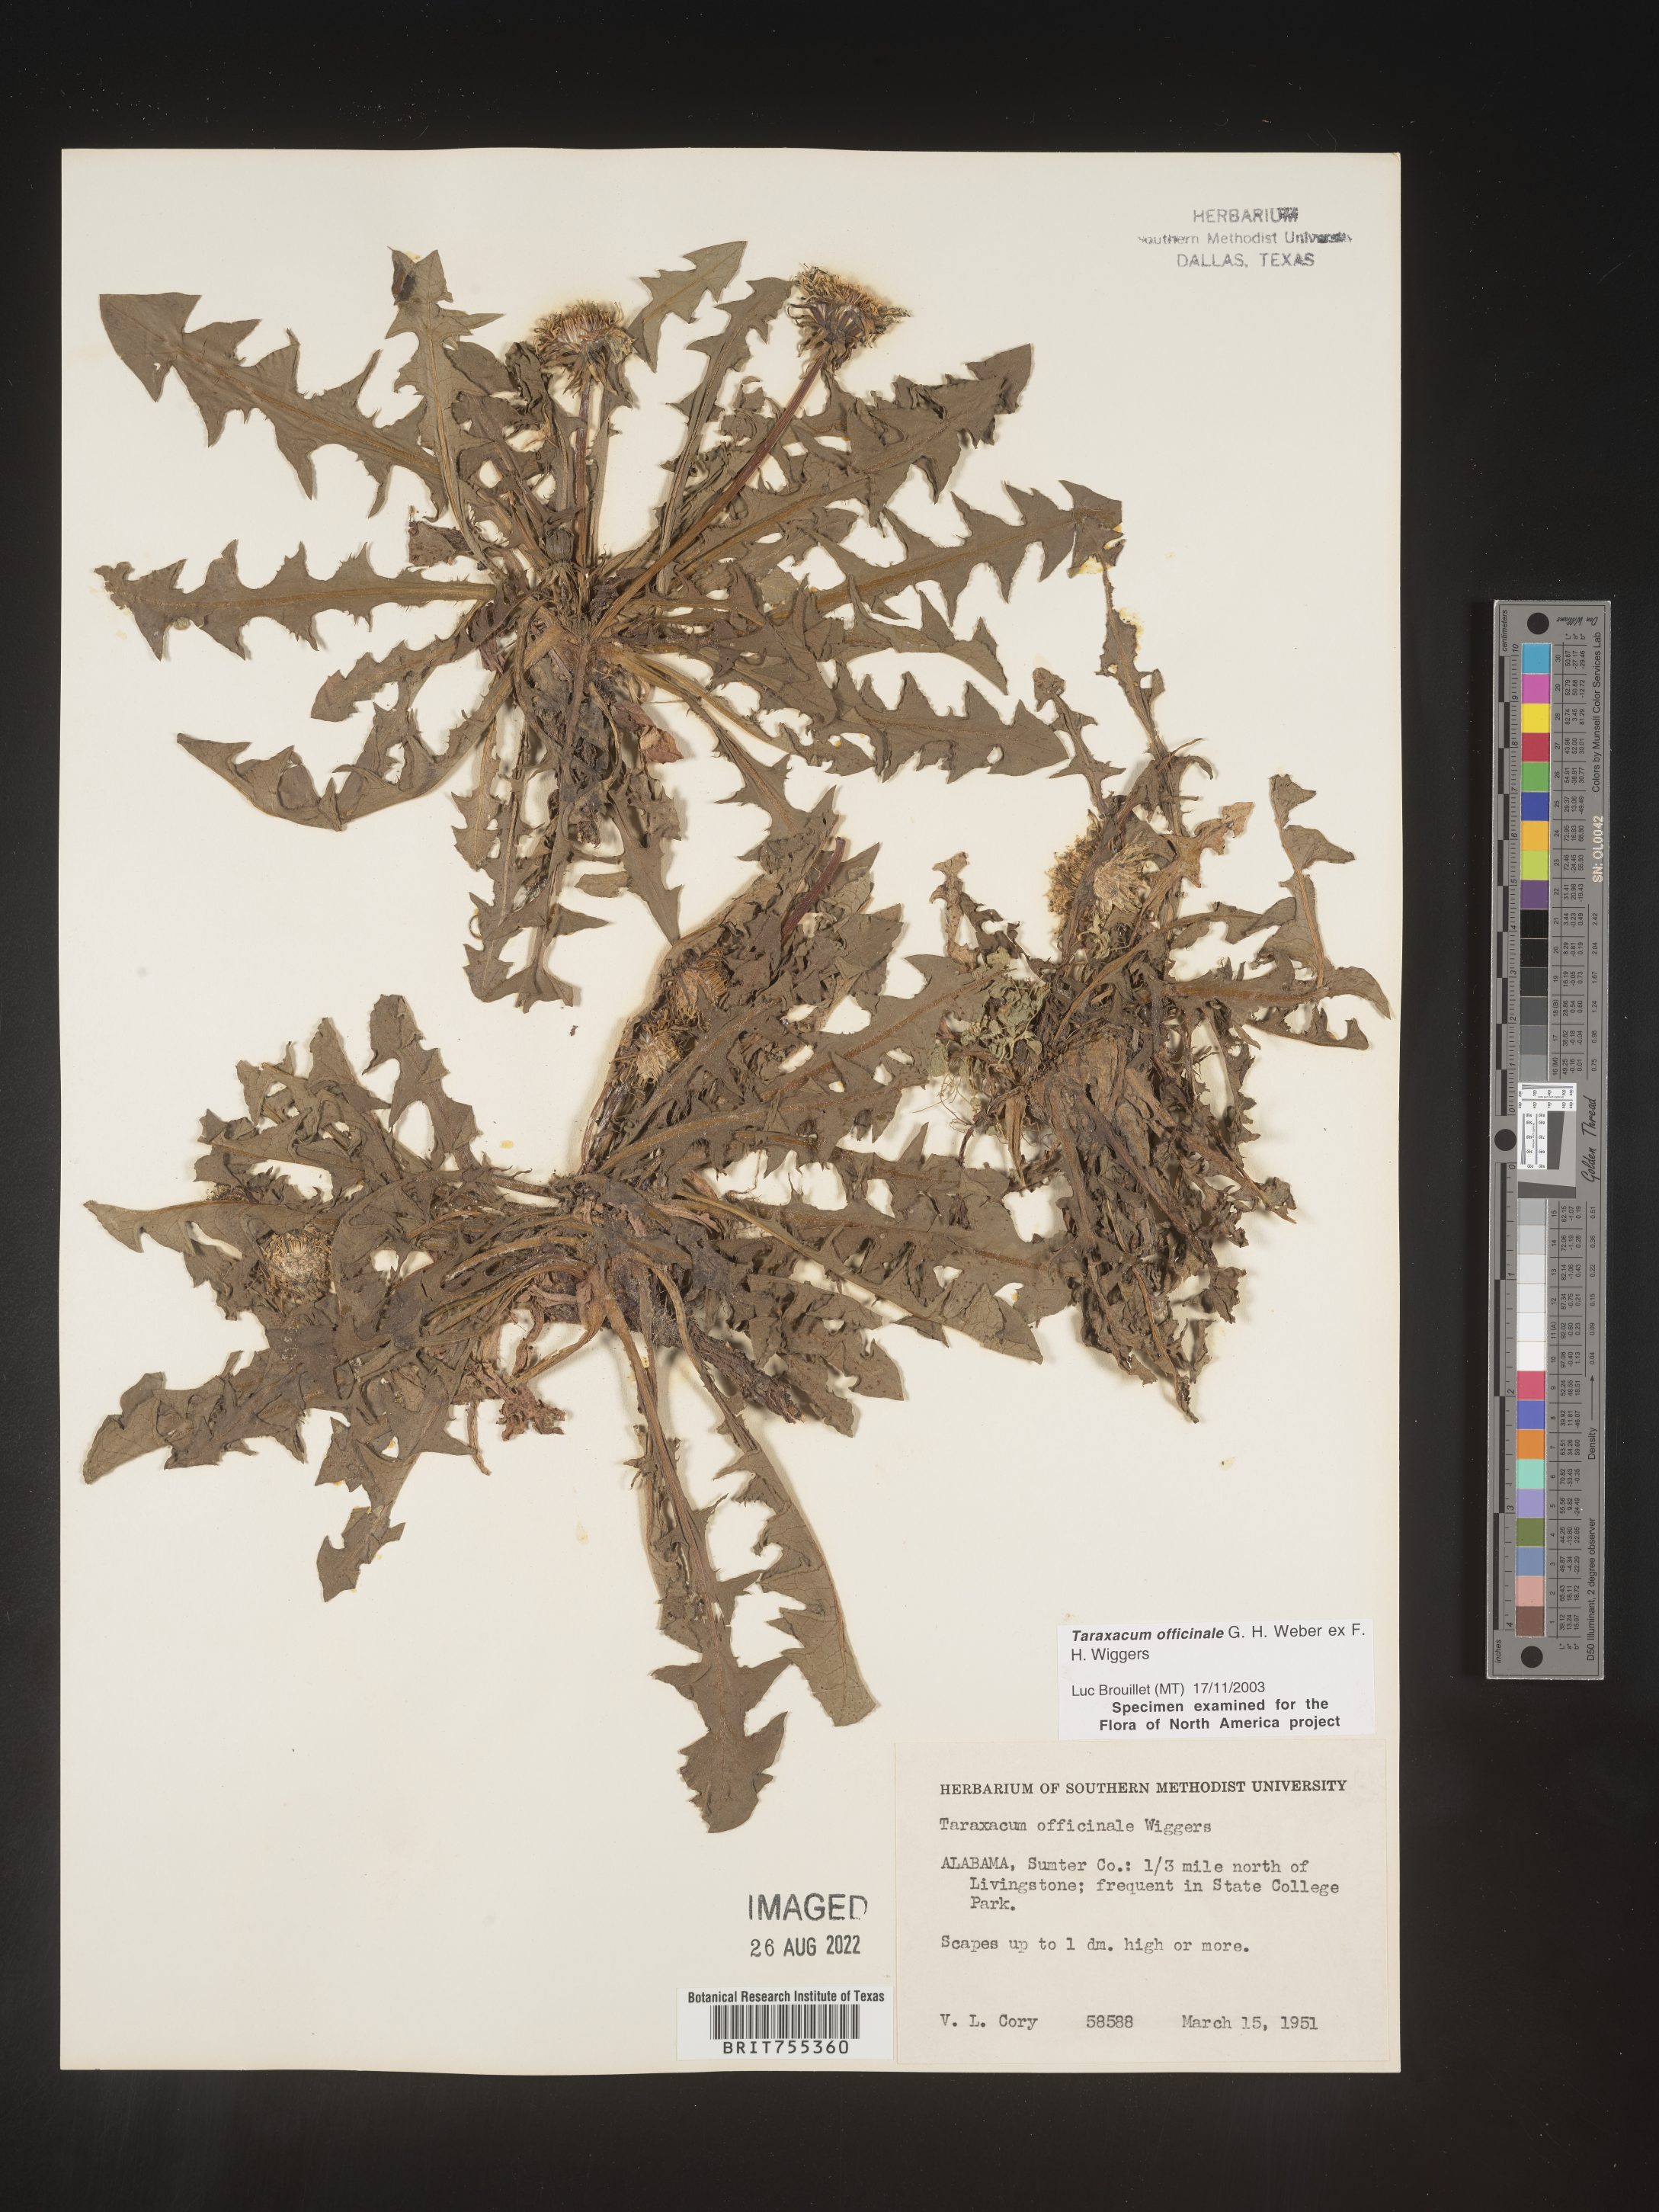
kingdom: Plantae
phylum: Tracheophyta
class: Magnoliopsida
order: Asterales
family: Asteraceae
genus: Taraxacum
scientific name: Taraxacum officinale
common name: Common dandelion
